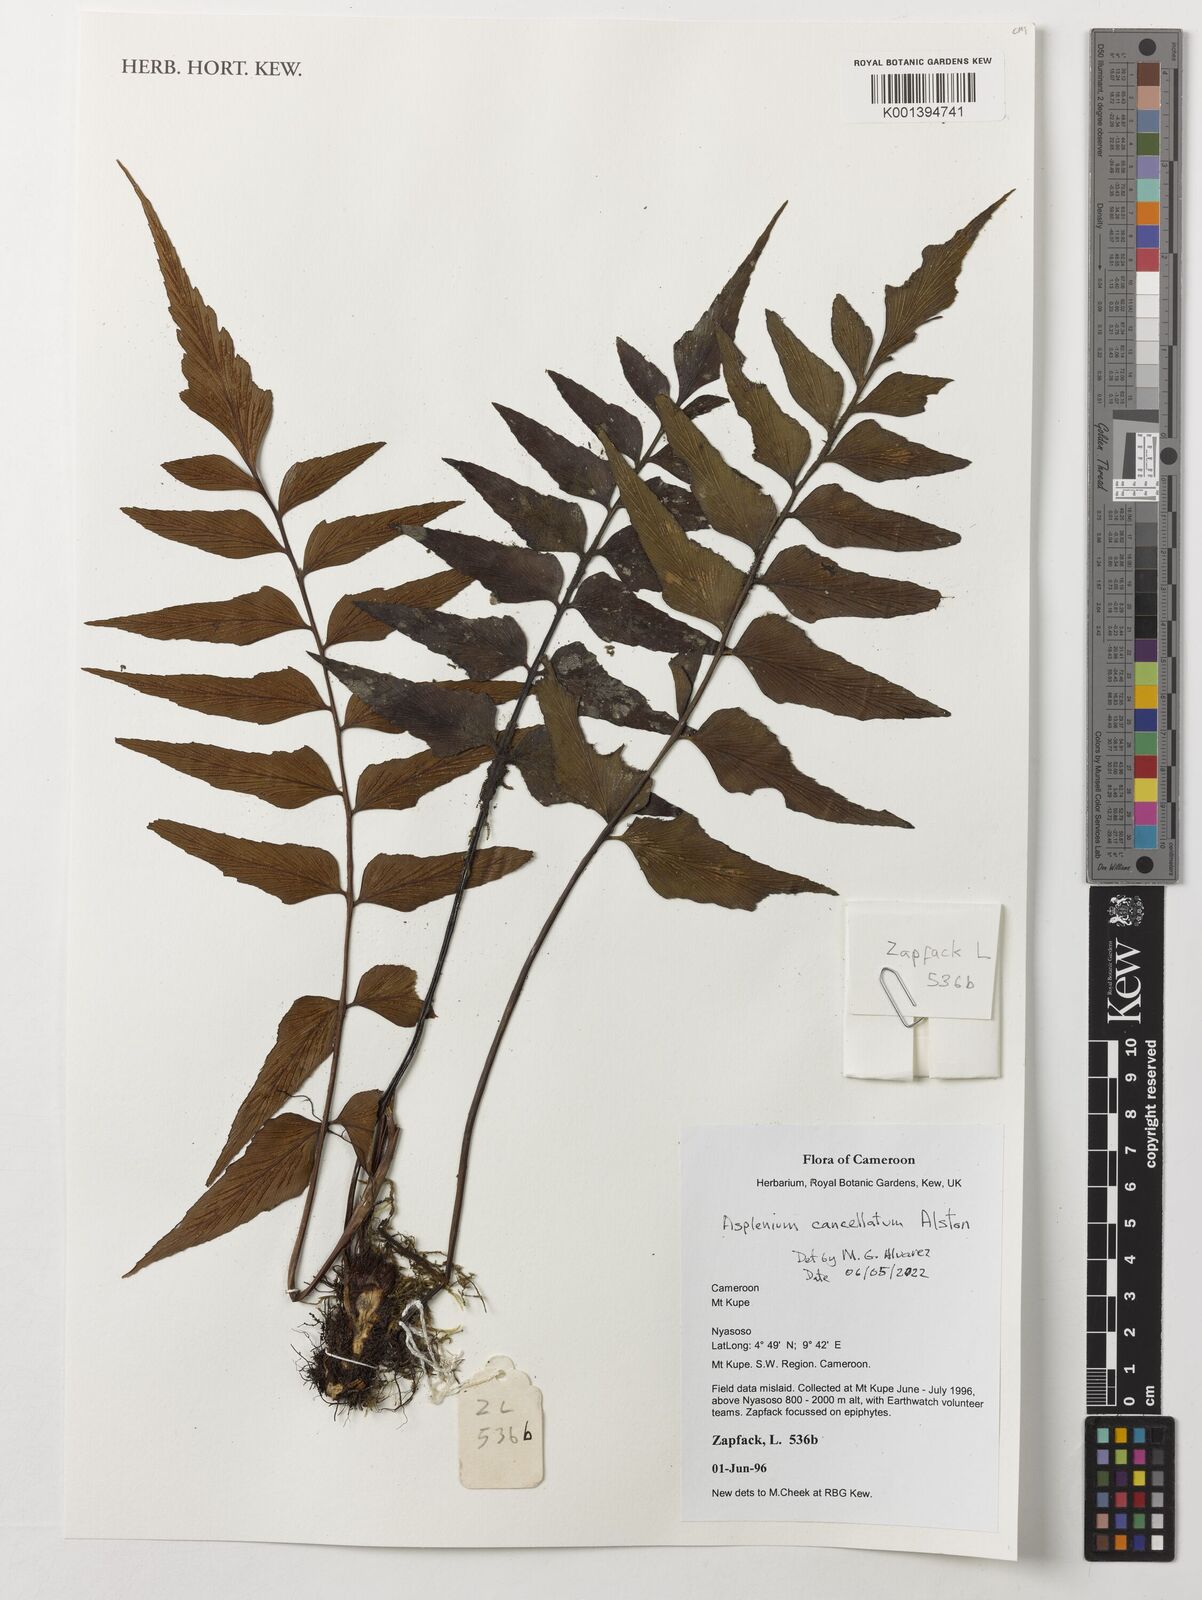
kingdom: Plantae
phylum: Tracheophyta
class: Polypodiopsida
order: Polypodiales
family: Aspleniaceae
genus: Asplenium
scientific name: Asplenium cancellatum
